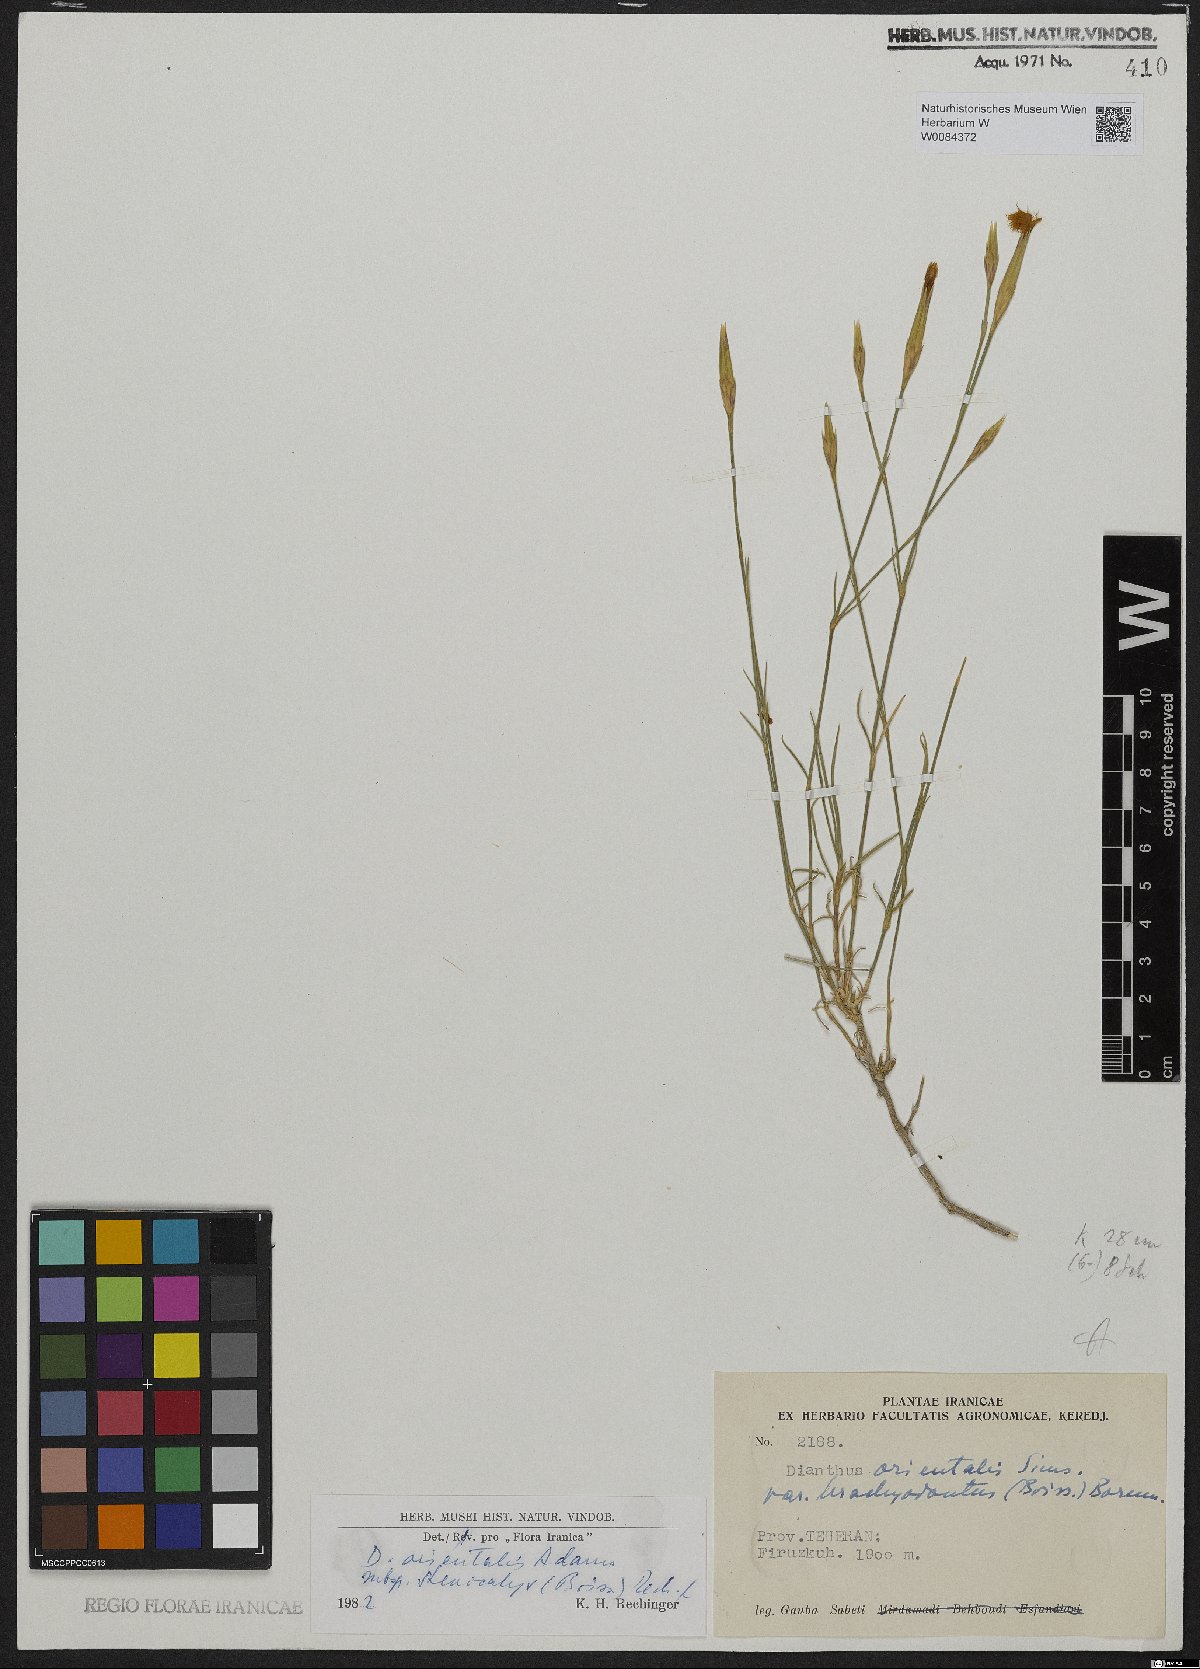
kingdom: Plantae
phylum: Tracheophyta
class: Magnoliopsida
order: Caryophyllales
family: Caryophyllaceae
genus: Dianthus
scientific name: Dianthus orientalis
